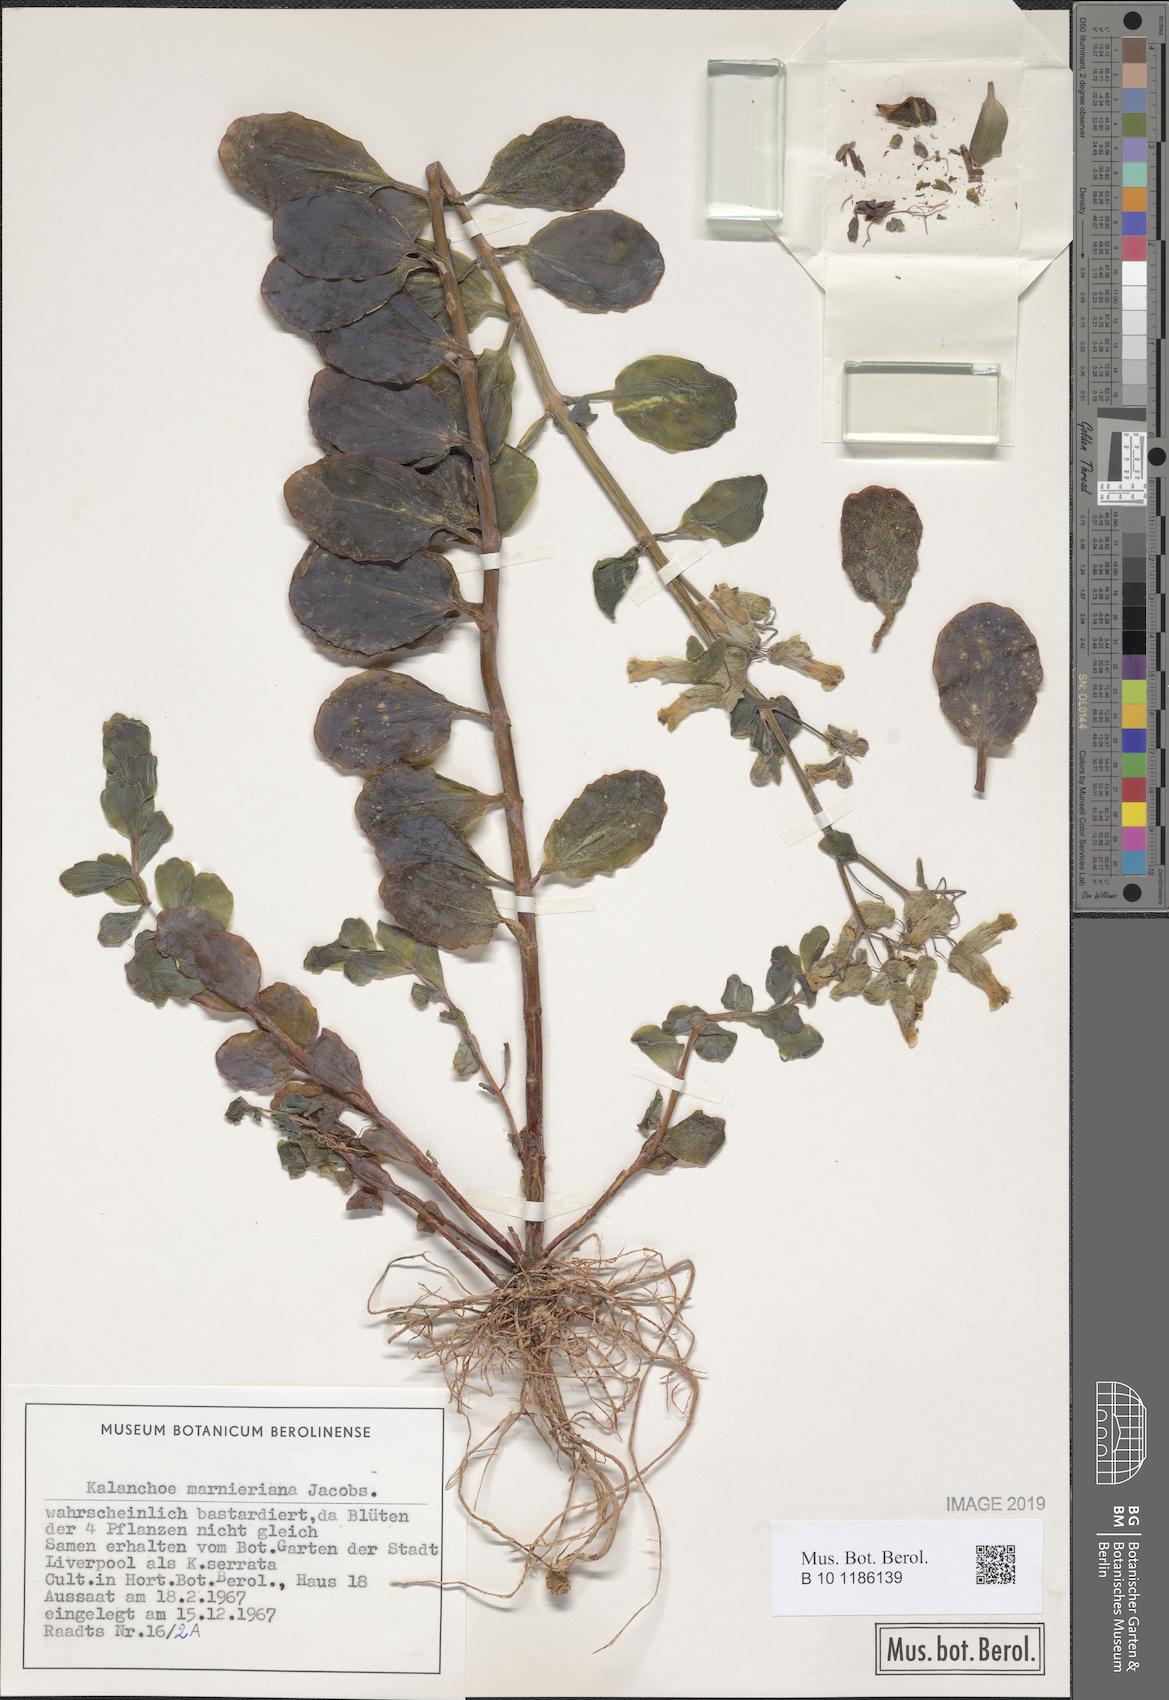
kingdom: Plantae
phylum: Tracheophyta
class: Magnoliopsida
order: Saxifragales
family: Crassulaceae
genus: Kalanchoe
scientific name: Kalanchoe marnieriana
